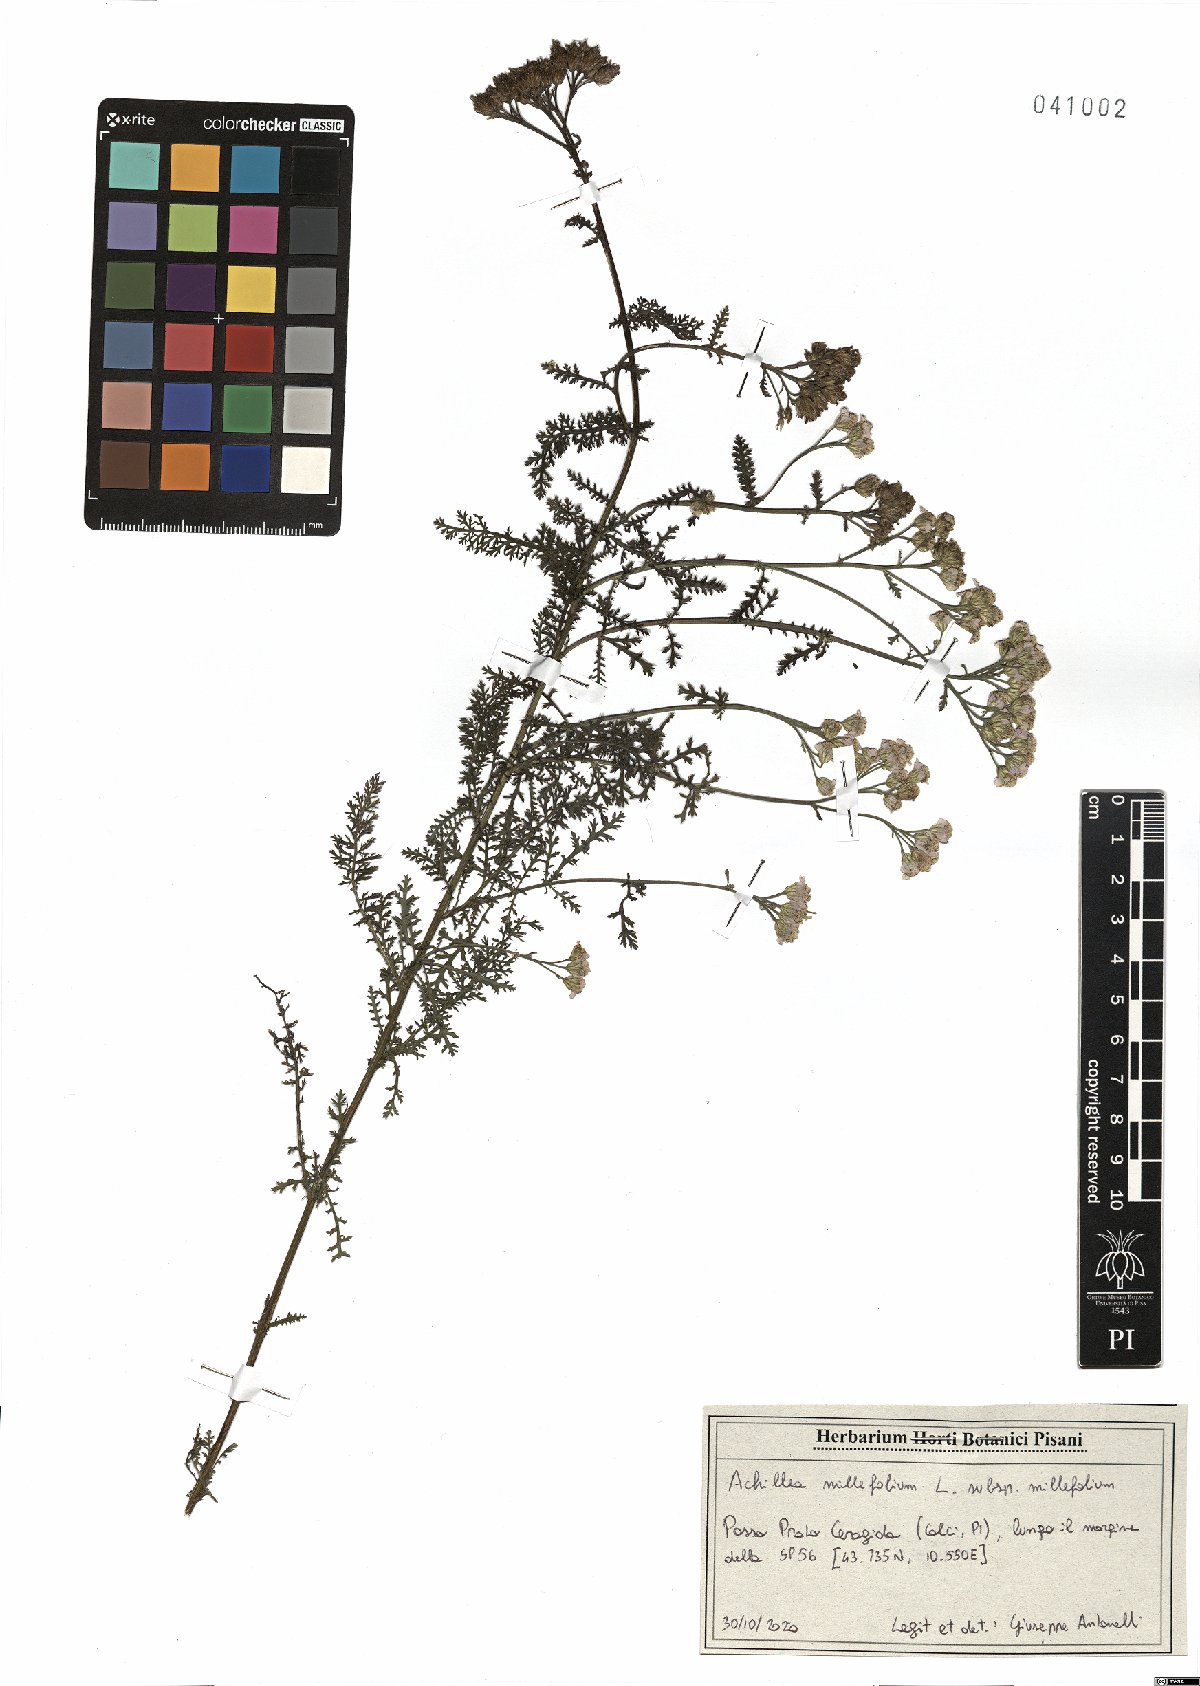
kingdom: Plantae
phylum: Tracheophyta
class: Magnoliopsida
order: Asterales
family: Asteraceae
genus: Achillea
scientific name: Achillea millefolium
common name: Yarrow
